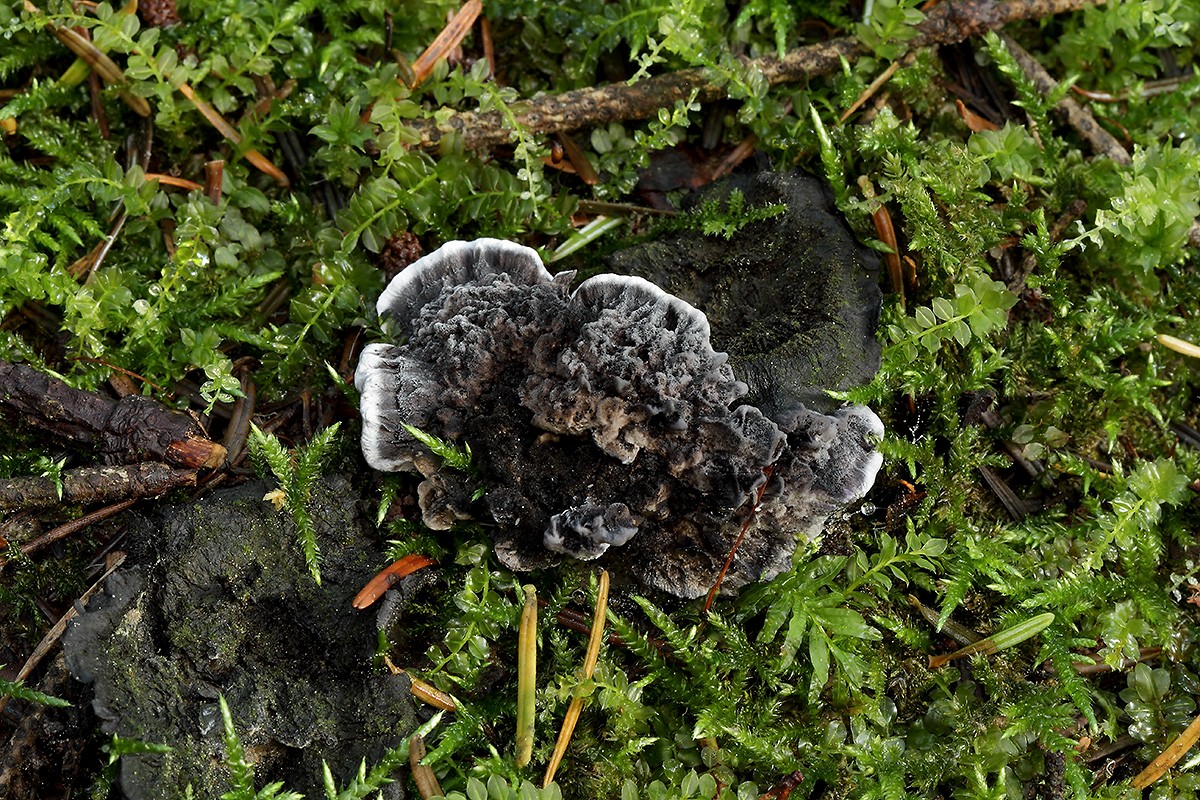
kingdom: Fungi
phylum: Basidiomycota
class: Agaricomycetes
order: Thelephorales
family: Thelephoraceae
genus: Phellodon
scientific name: Phellodon
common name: mørk duftpigsvamp
